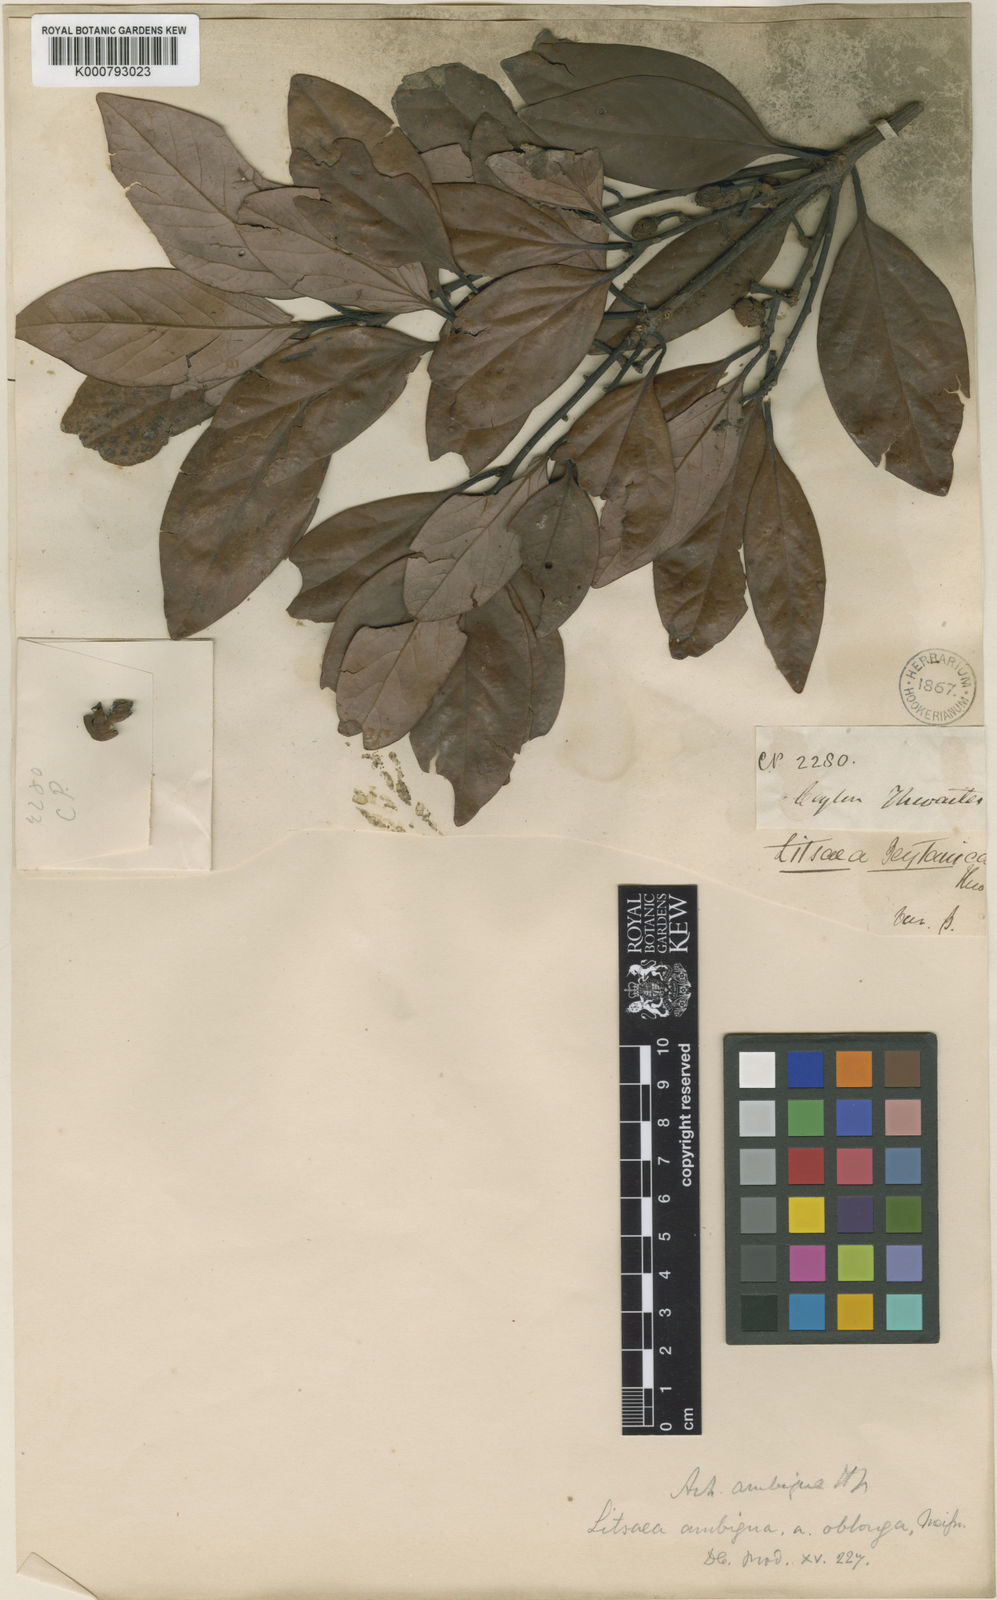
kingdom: Plantae
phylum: Tracheophyta
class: Magnoliopsida
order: Laurales
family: Lauraceae
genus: Actinodaphne
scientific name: Actinodaphne ambigua
